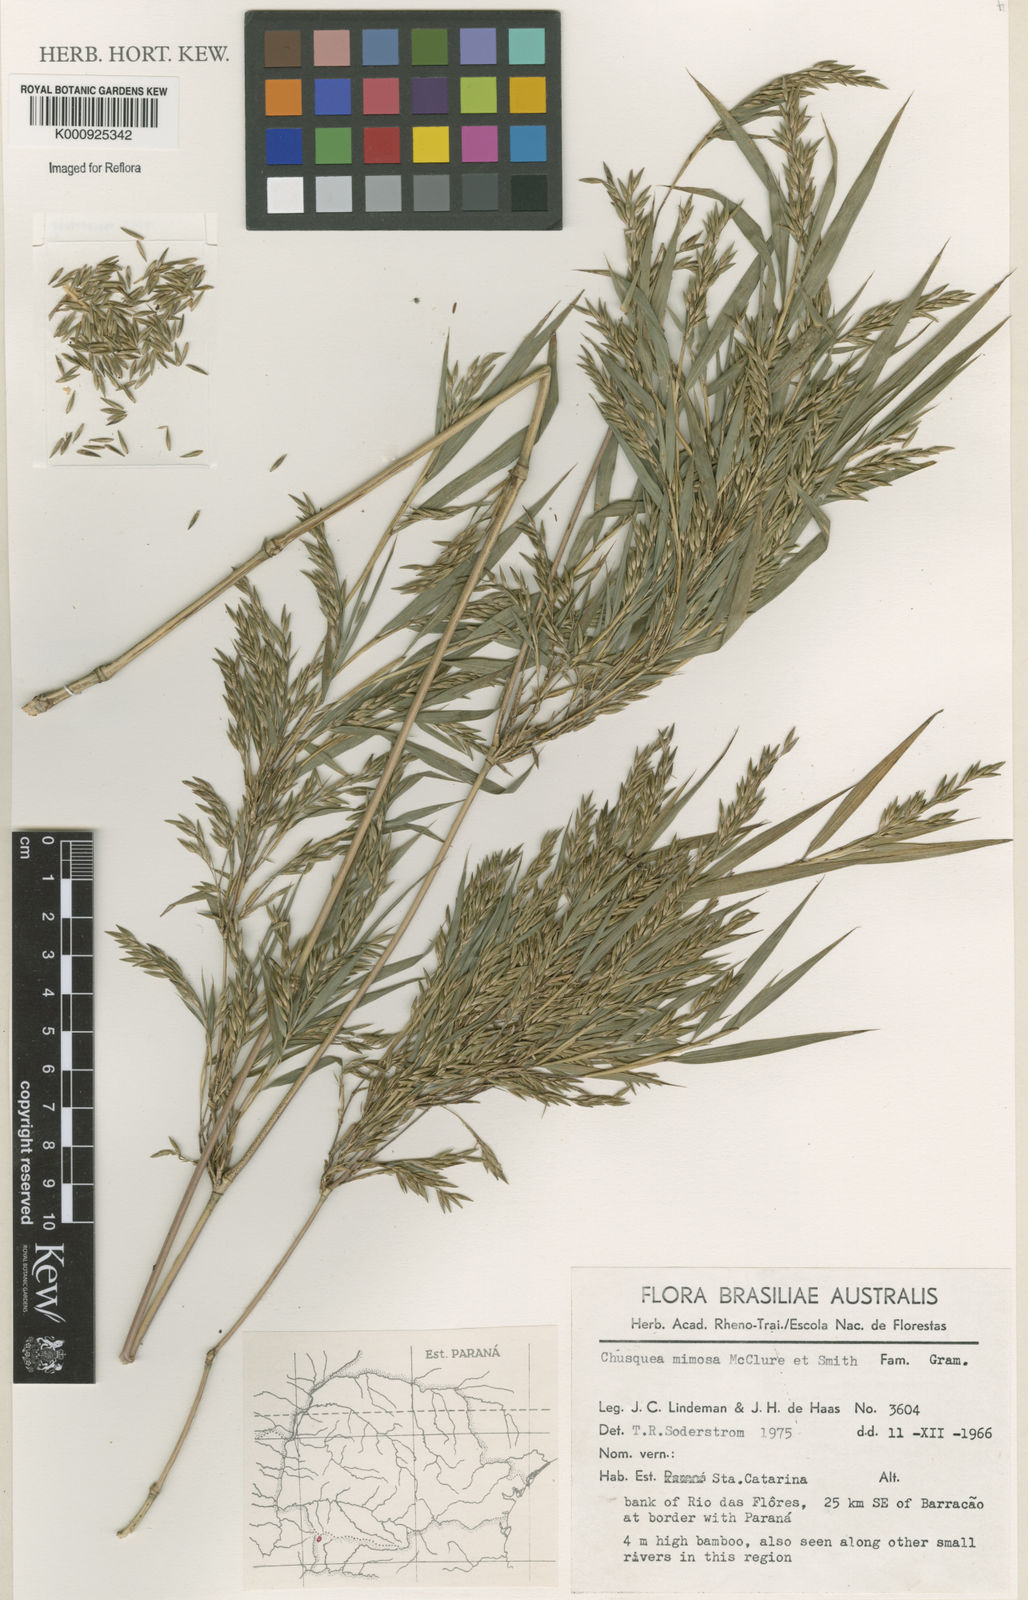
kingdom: Plantae
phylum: Tracheophyta
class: Liliopsida
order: Poales
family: Poaceae
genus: Chusquea
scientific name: Chusquea mimosa
